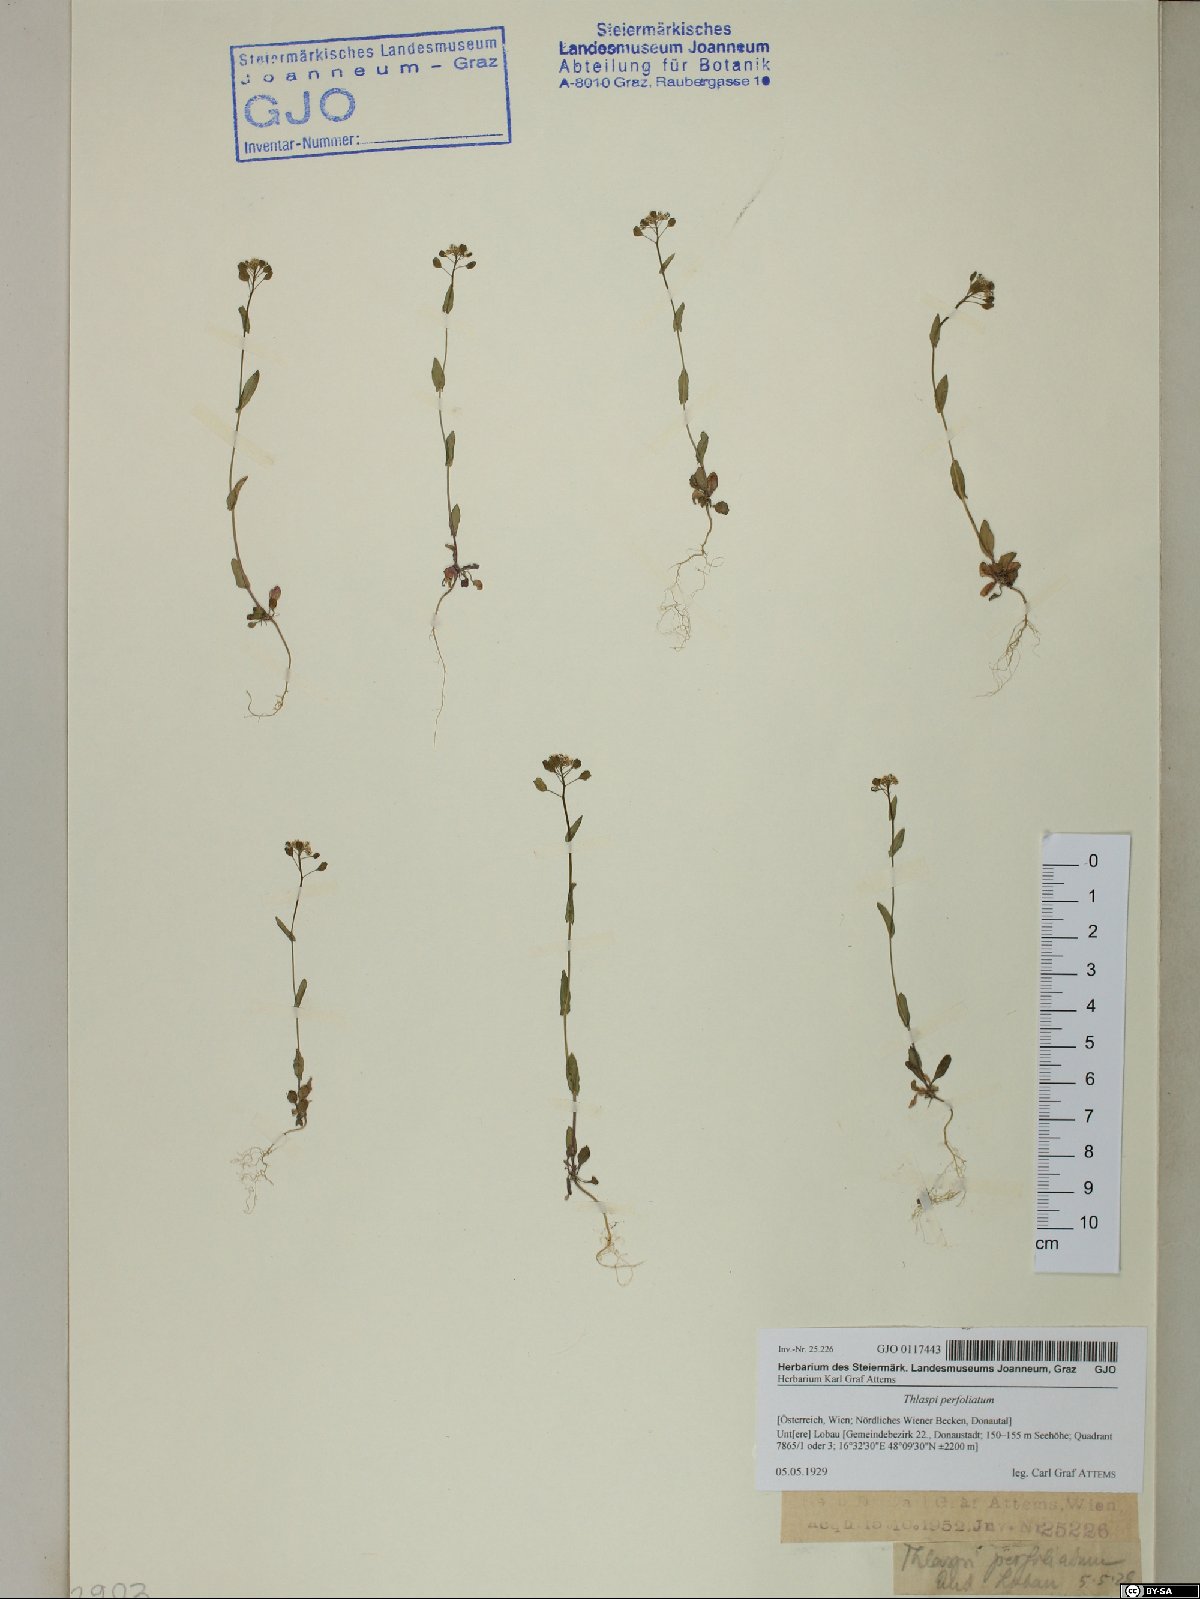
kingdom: Plantae
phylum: Tracheophyta
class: Magnoliopsida
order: Brassicales
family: Brassicaceae
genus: Noccaea
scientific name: Noccaea perfoliata
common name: Perfoliate pennycress
